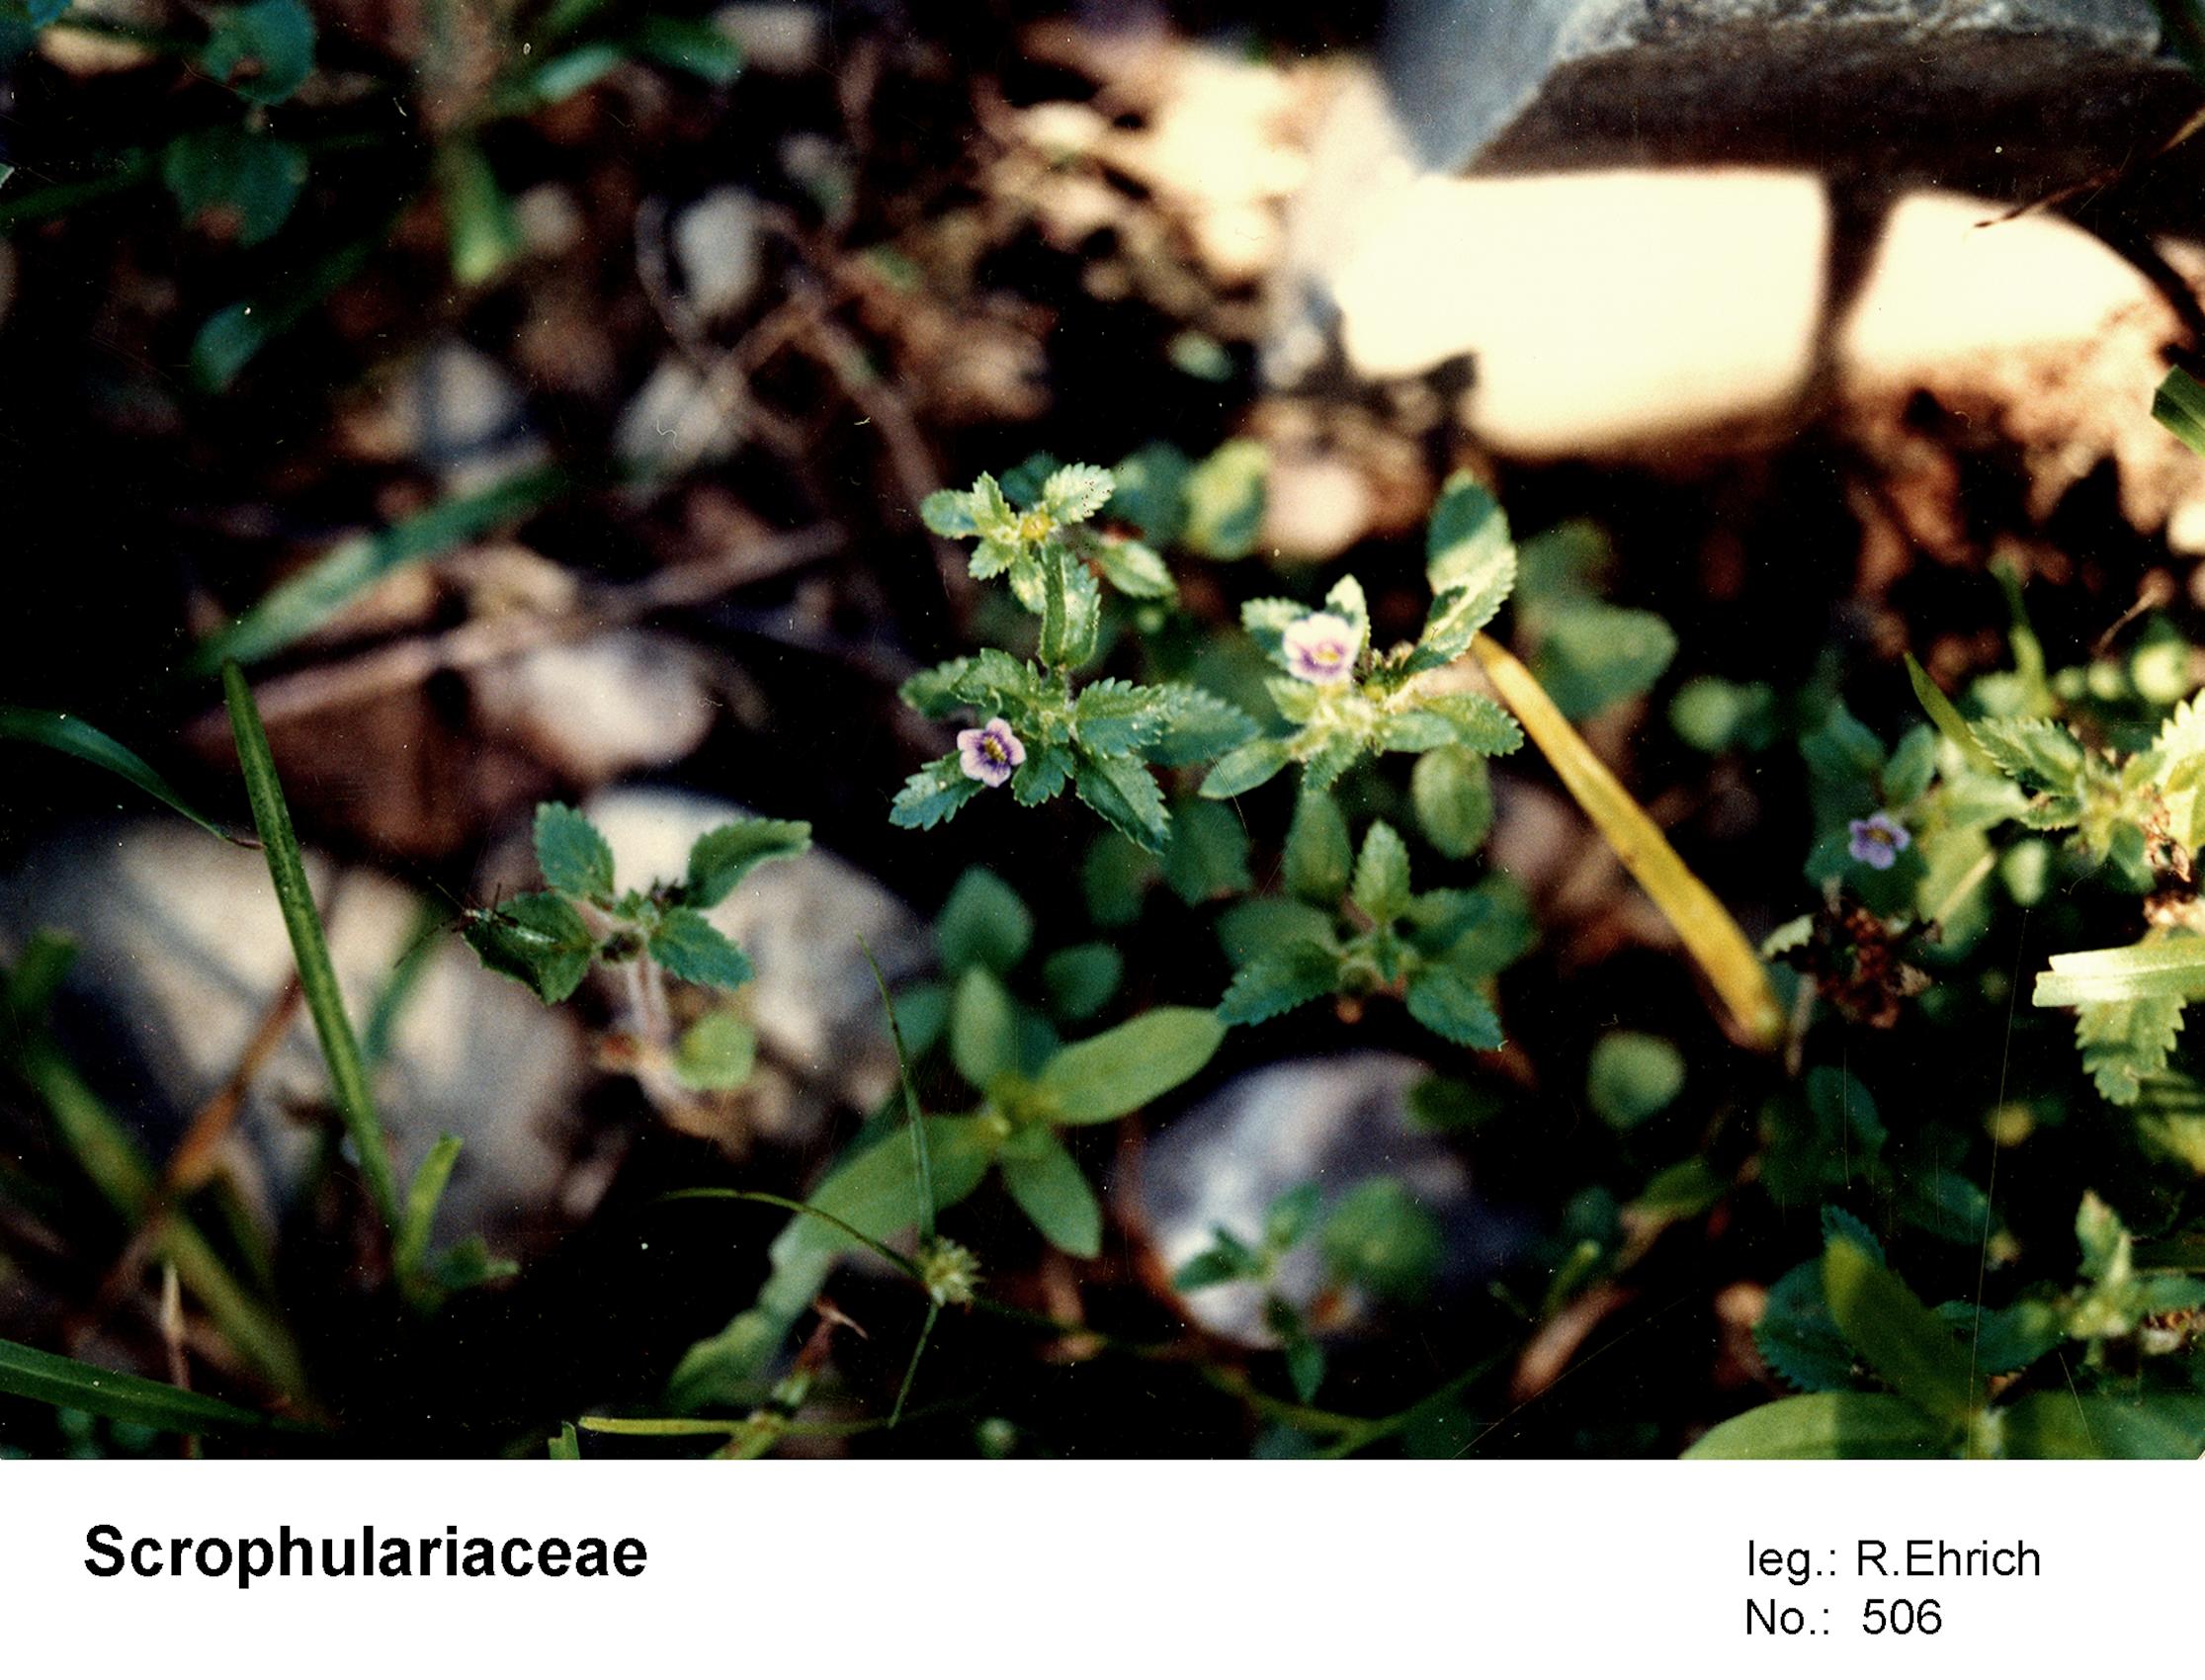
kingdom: Plantae
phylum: Tracheophyta
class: Magnoliopsida
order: Lamiales
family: Scrophulariaceae
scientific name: Scrophulariaceae
